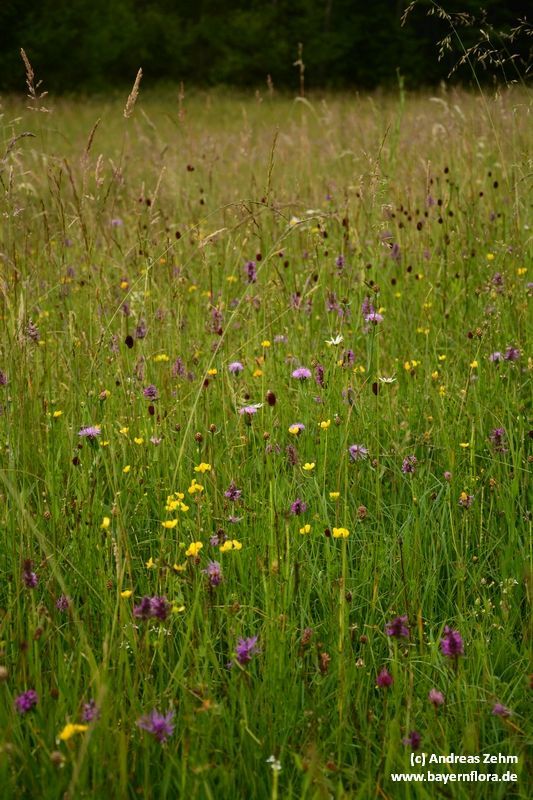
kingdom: Plantae
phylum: Tracheophyta
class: Magnoliopsida
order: Lamiales
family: Lamiaceae
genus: Betonica
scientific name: Betonica officinalis
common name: Bishop's-wort
